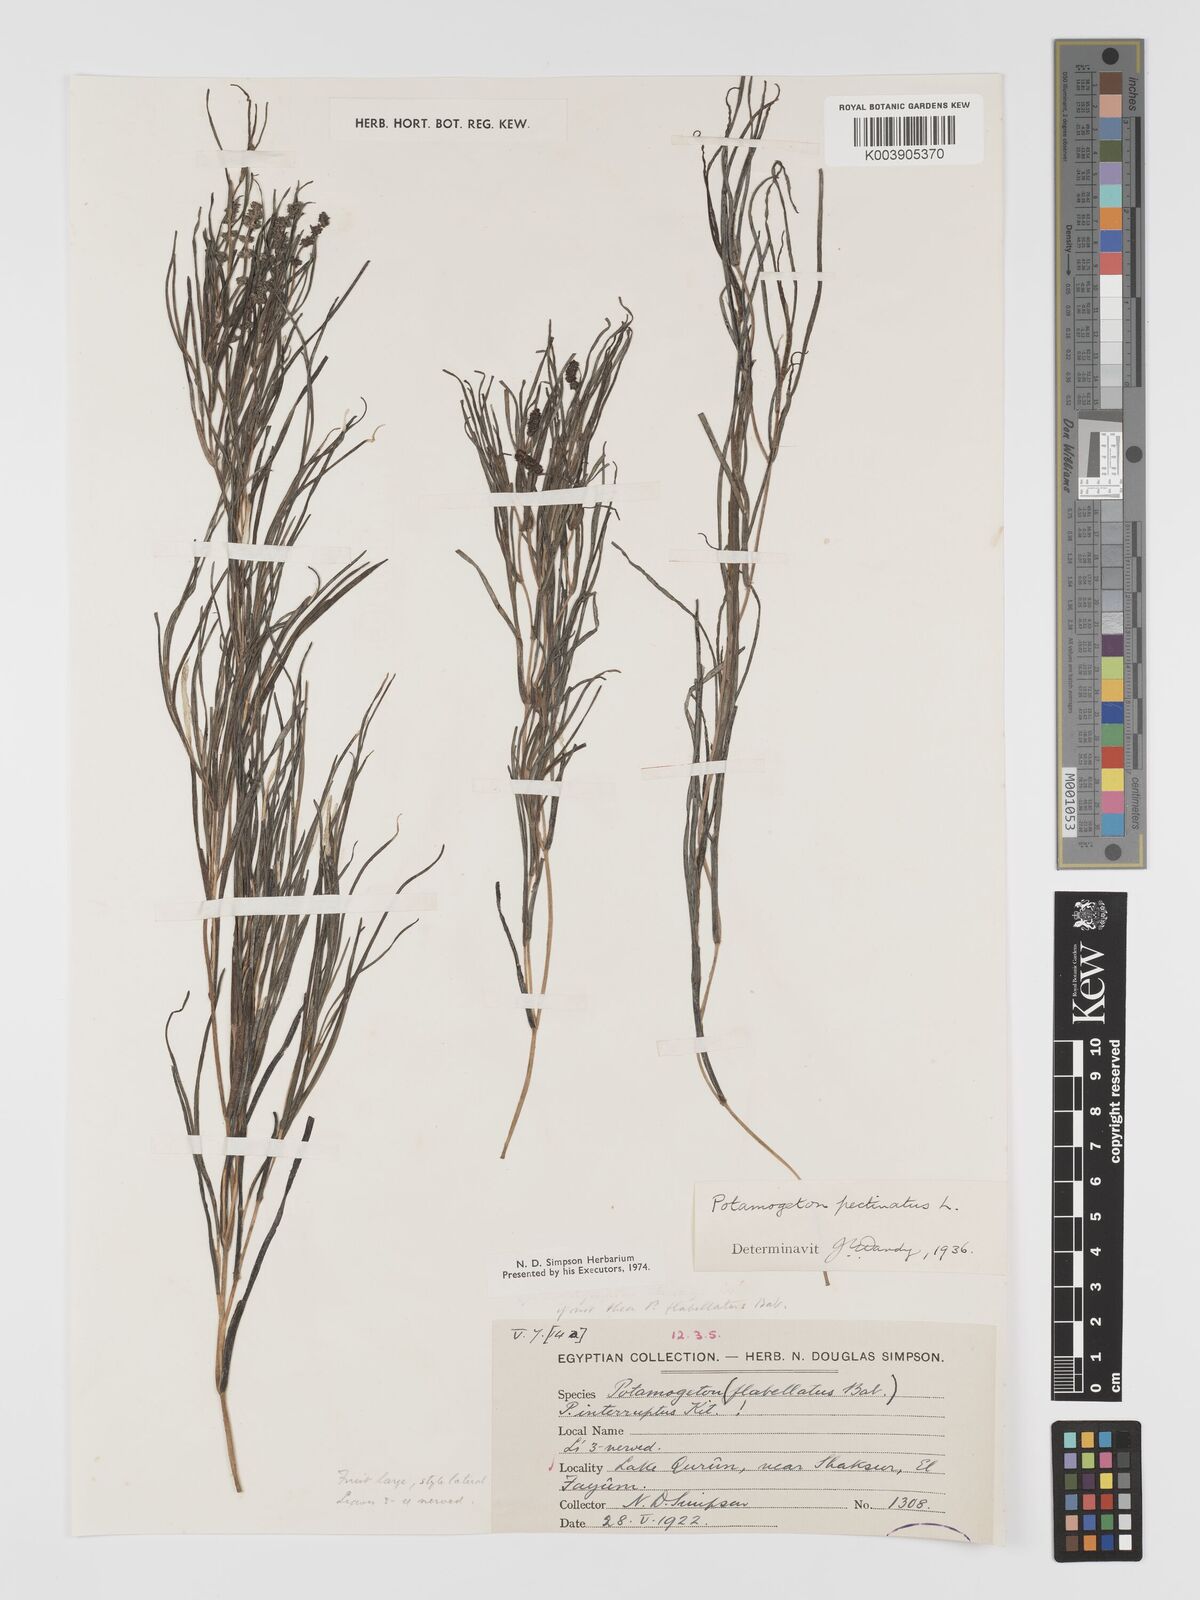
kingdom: Plantae
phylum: Tracheophyta
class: Liliopsida
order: Alismatales
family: Potamogetonaceae
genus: Stuckenia
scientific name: Stuckenia pectinata
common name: Sago pondweed
